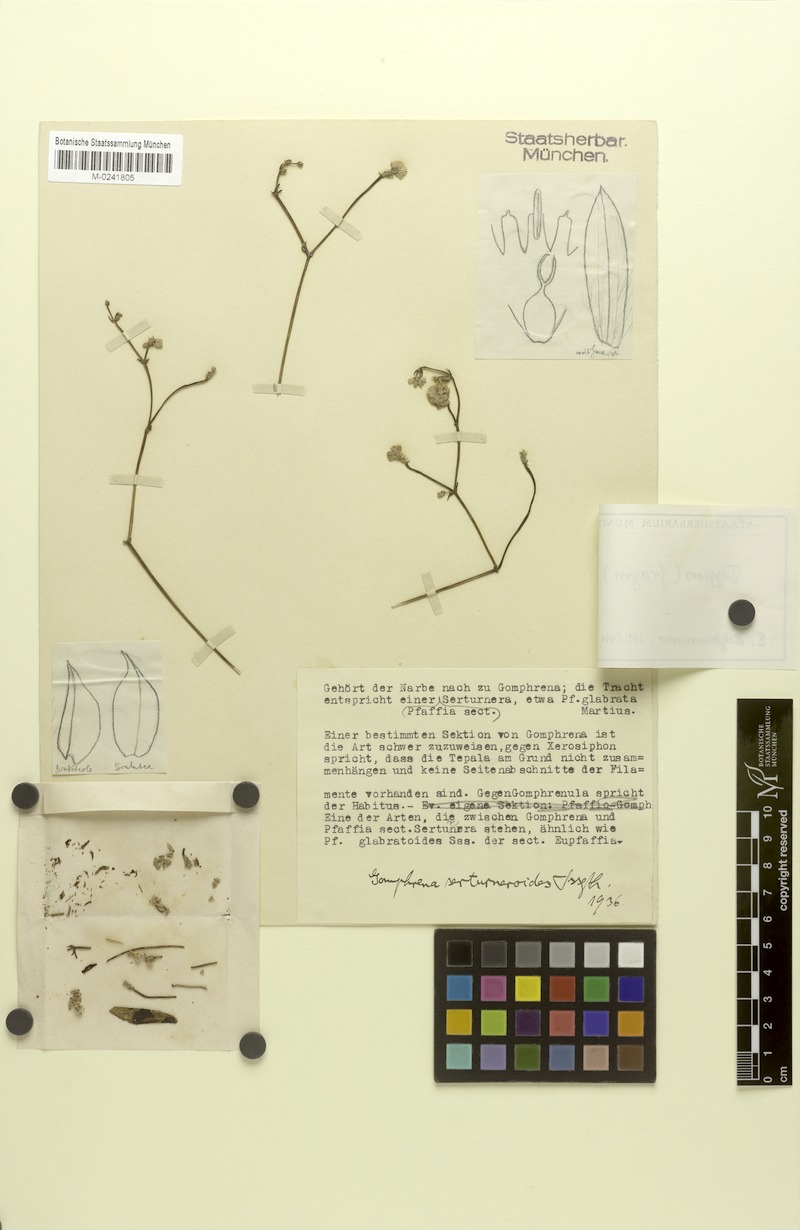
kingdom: Plantae
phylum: Tracheophyta
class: Magnoliopsida
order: Caryophyllales
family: Amaranthaceae
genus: Gomphrena
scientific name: Gomphrena serturneroides
